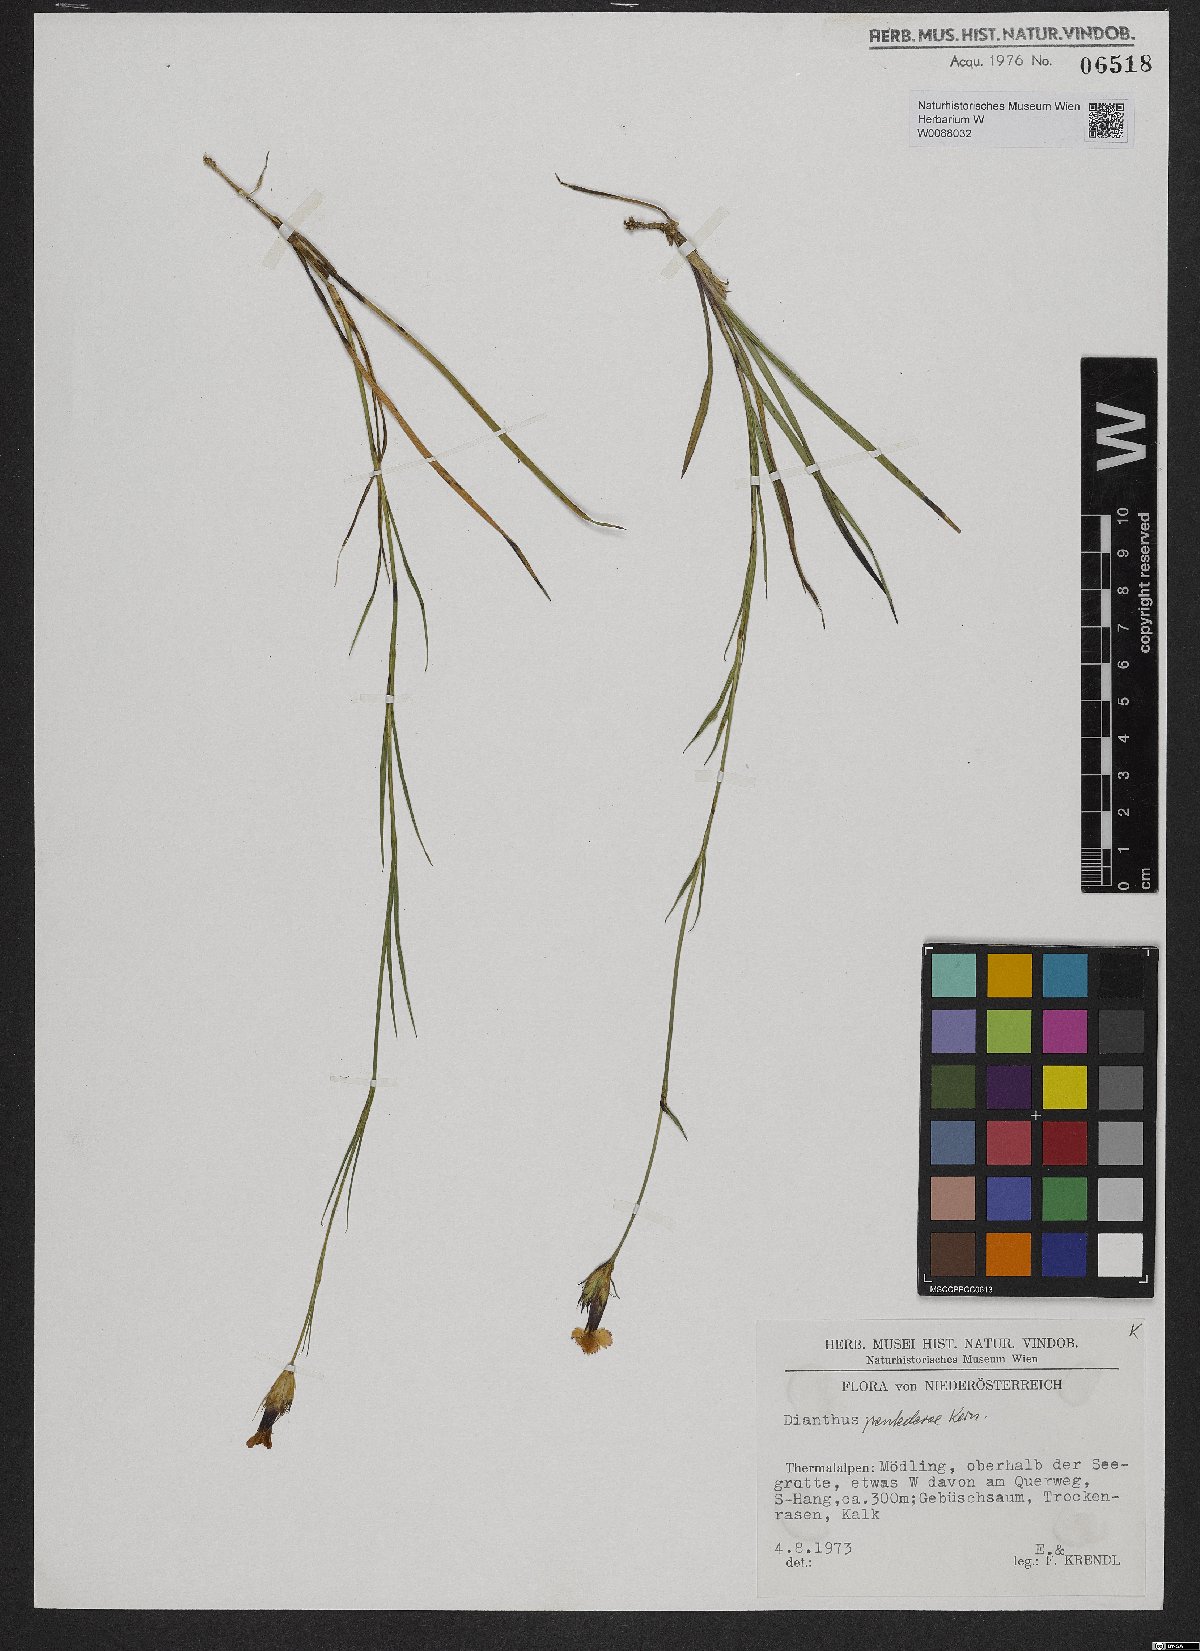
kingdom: Plantae
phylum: Tracheophyta
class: Magnoliopsida
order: Caryophyllales
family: Caryophyllaceae
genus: Dianthus
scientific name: Dianthus pontederae
